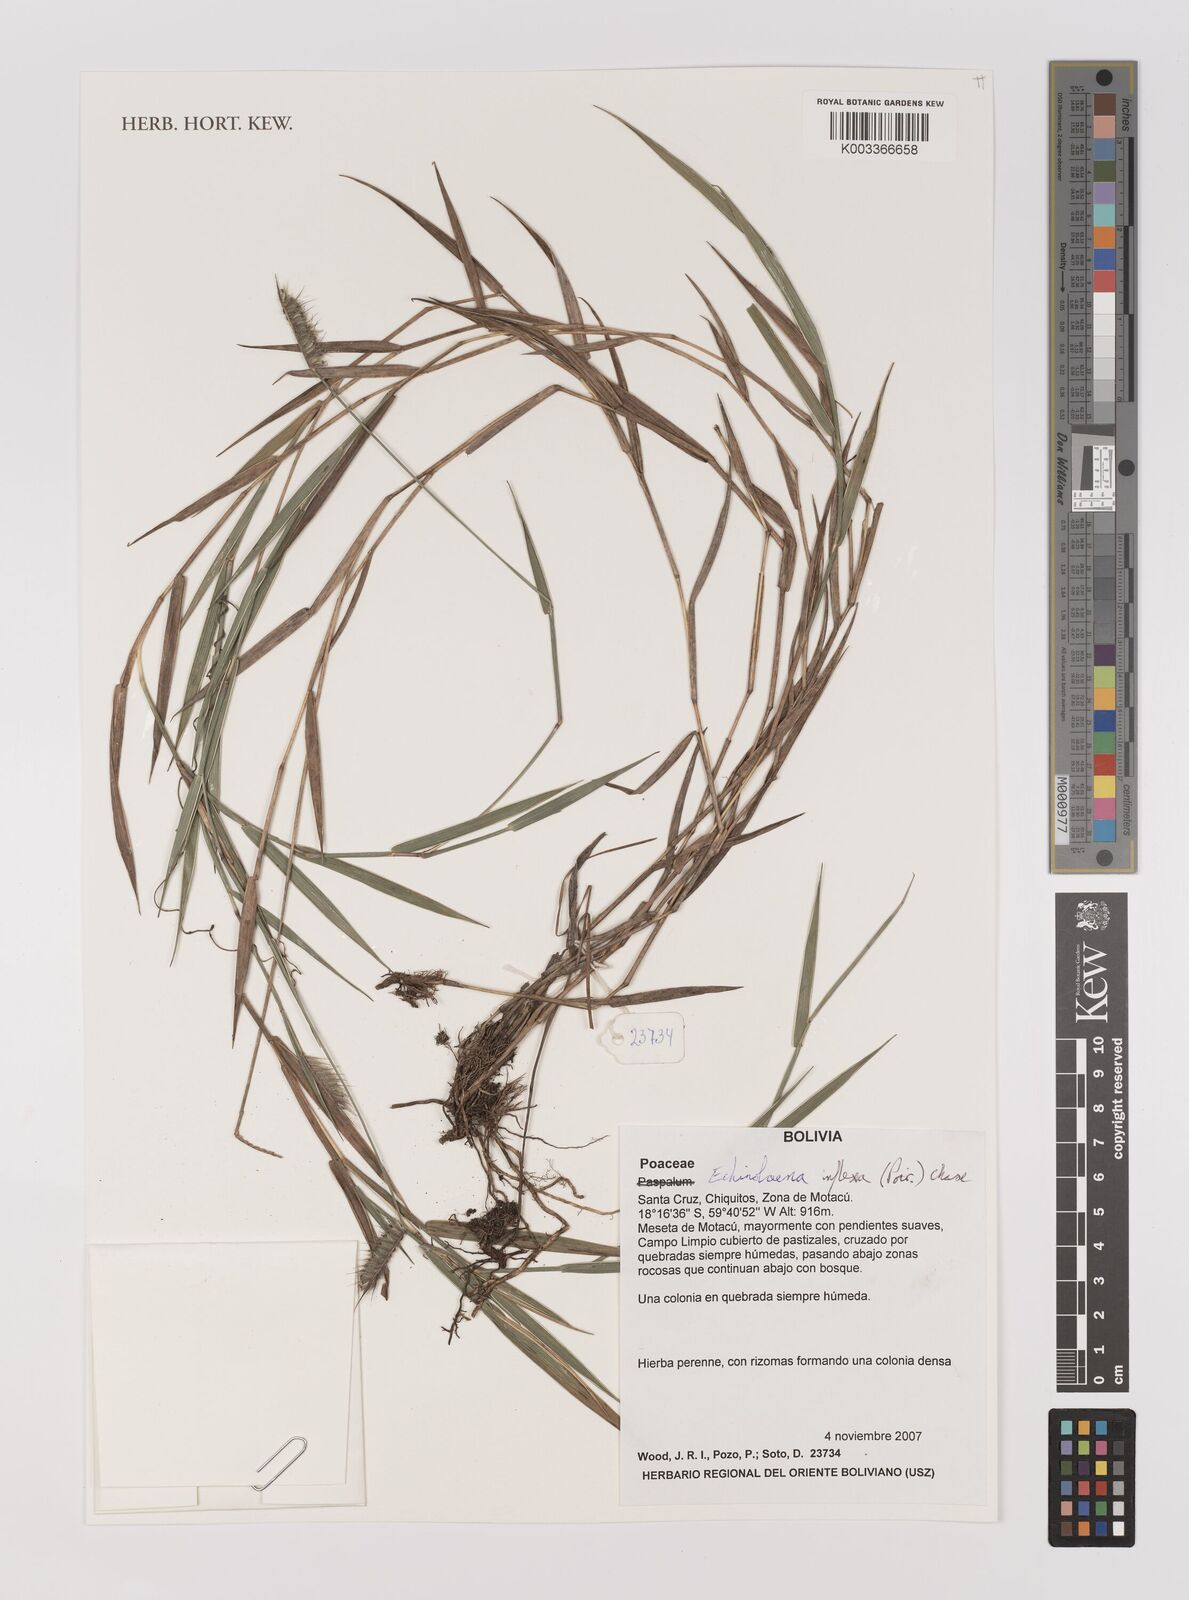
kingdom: Plantae
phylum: Tracheophyta
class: Liliopsida
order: Poales
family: Poaceae
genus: Echinolaena
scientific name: Echinolaena inflexa
